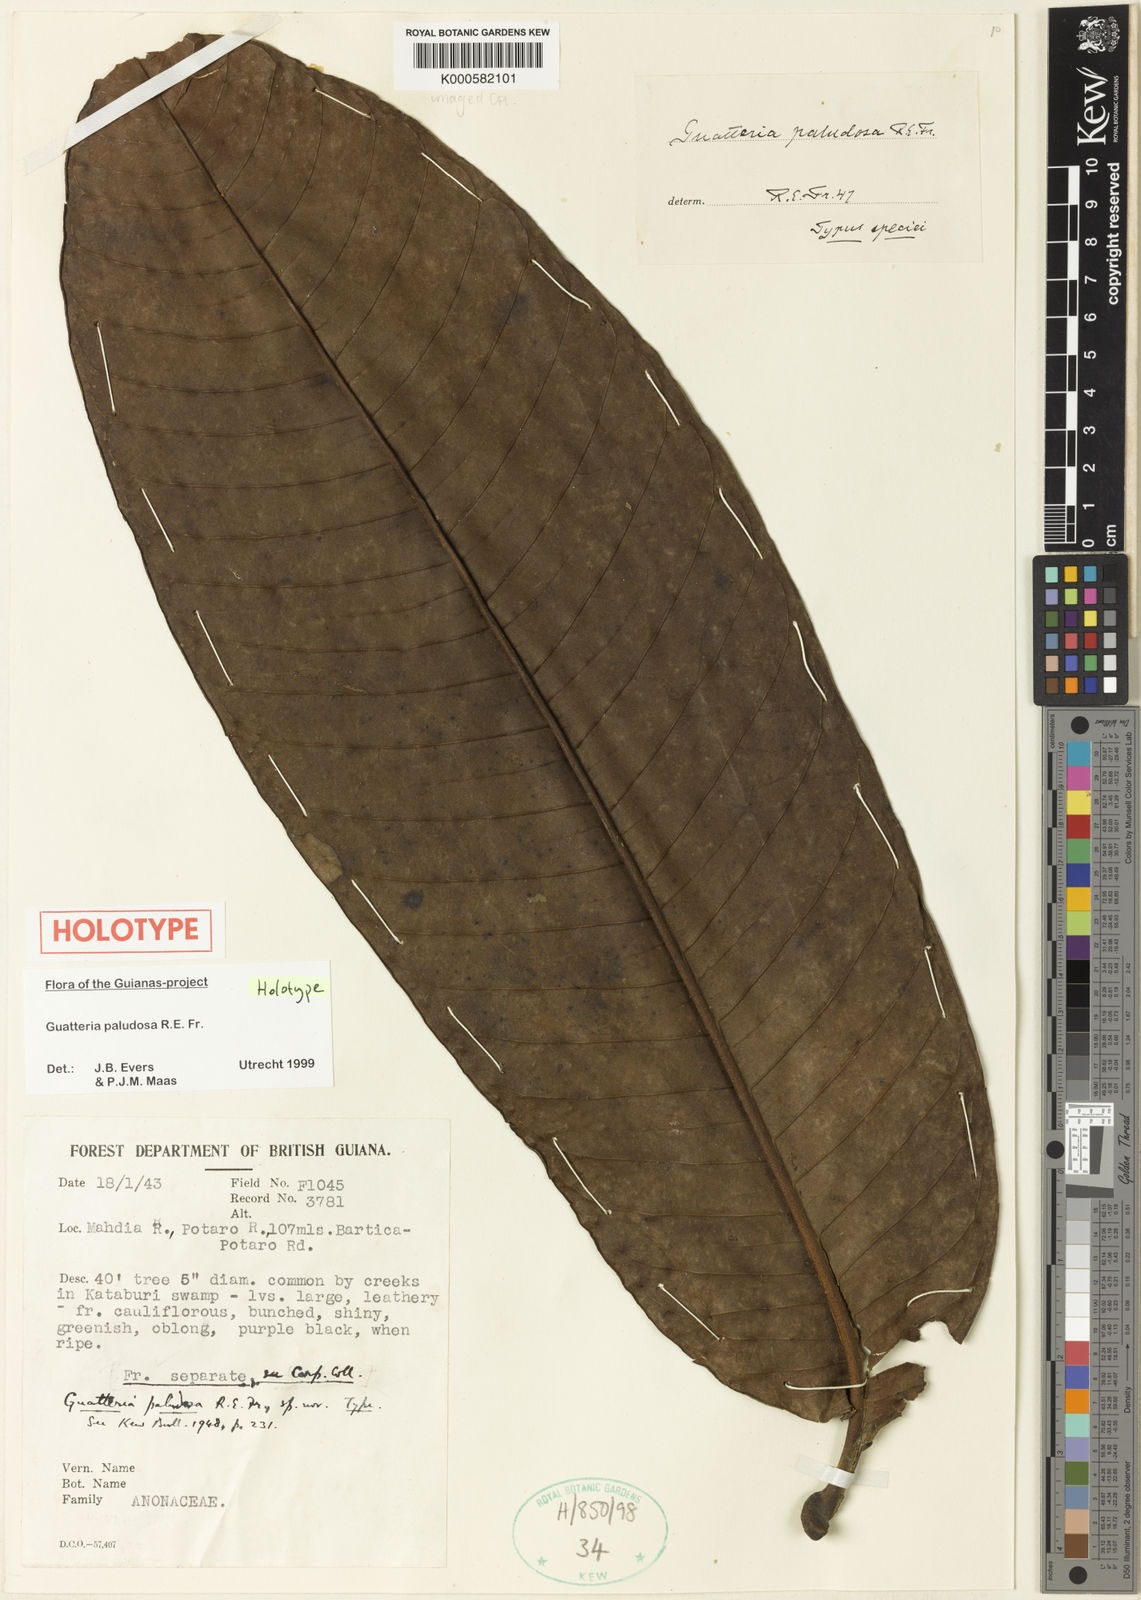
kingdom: Plantae
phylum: Tracheophyta
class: Magnoliopsida
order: Magnoliales
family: Annonaceae
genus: Guatteria
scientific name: Guatteria paludosa
